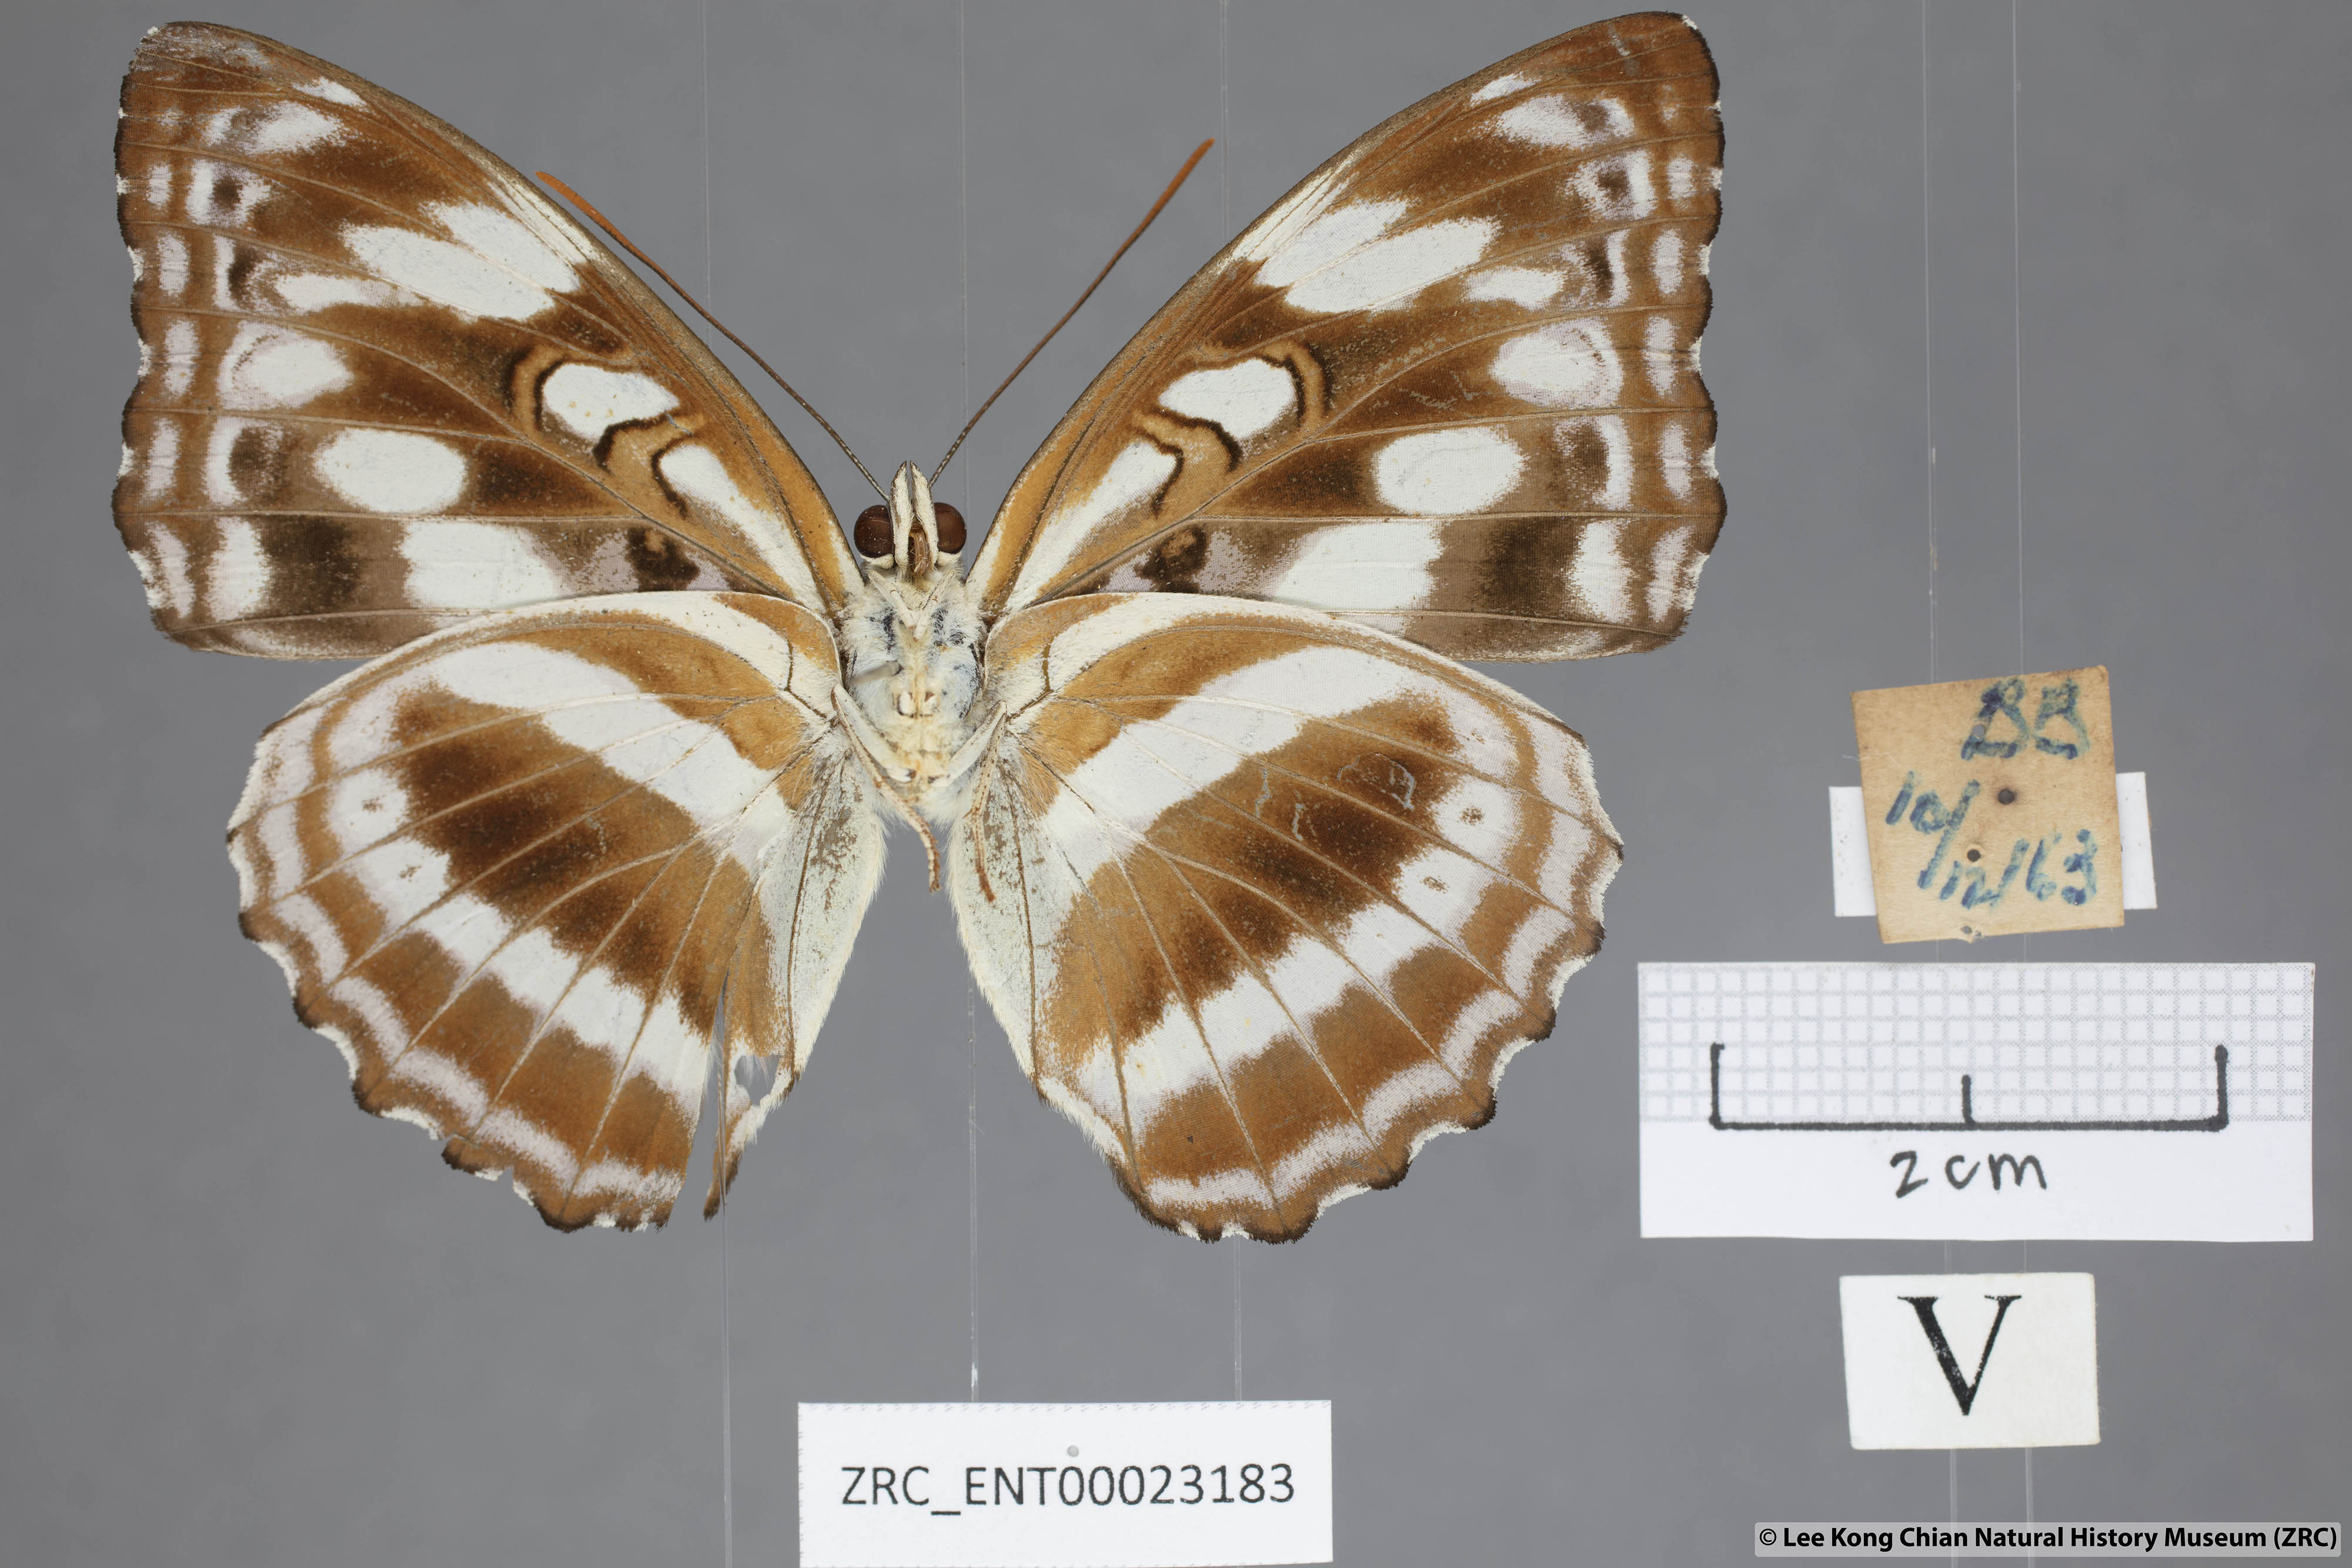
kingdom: Animalia
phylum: Arthropoda
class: Insecta
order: Lepidoptera
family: Nymphalidae
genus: Parathyma
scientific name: Parathyma asura
